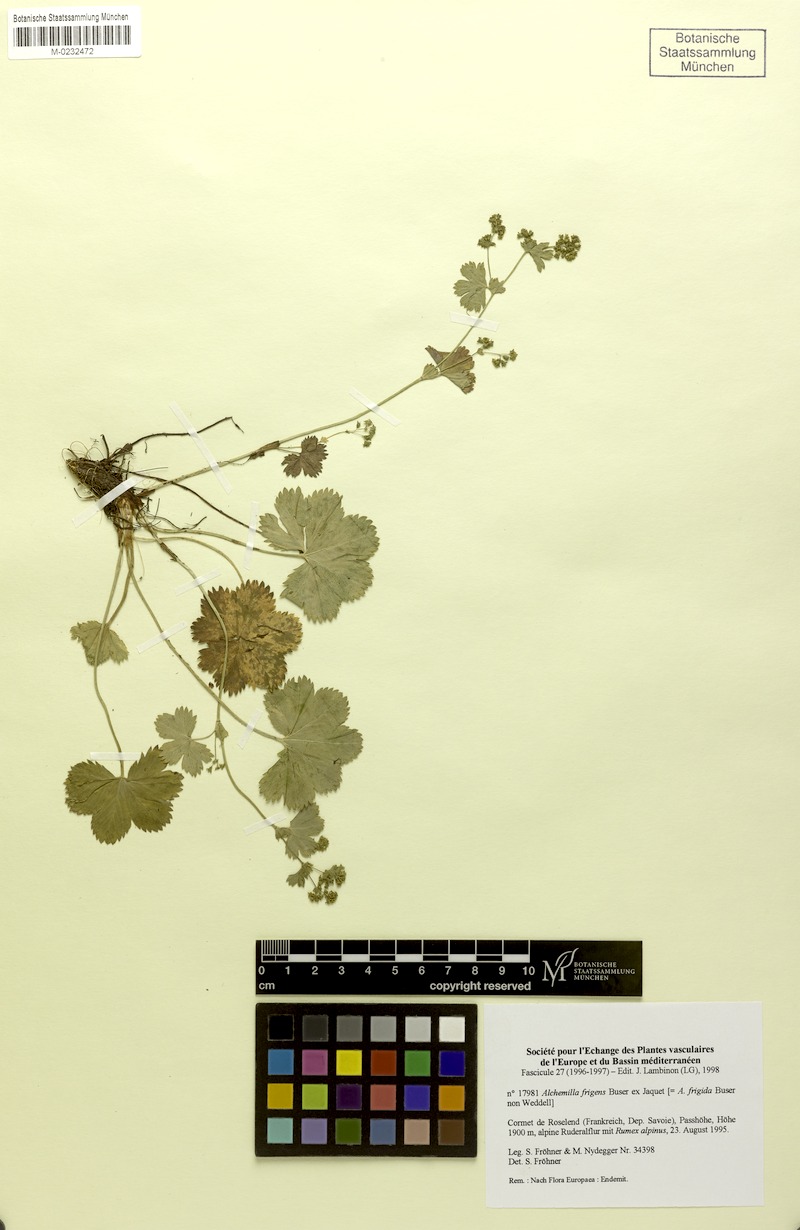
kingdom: Plantae
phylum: Tracheophyta
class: Magnoliopsida
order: Rosales
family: Rosaceae
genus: Alchemilla
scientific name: Alchemilla frigens
